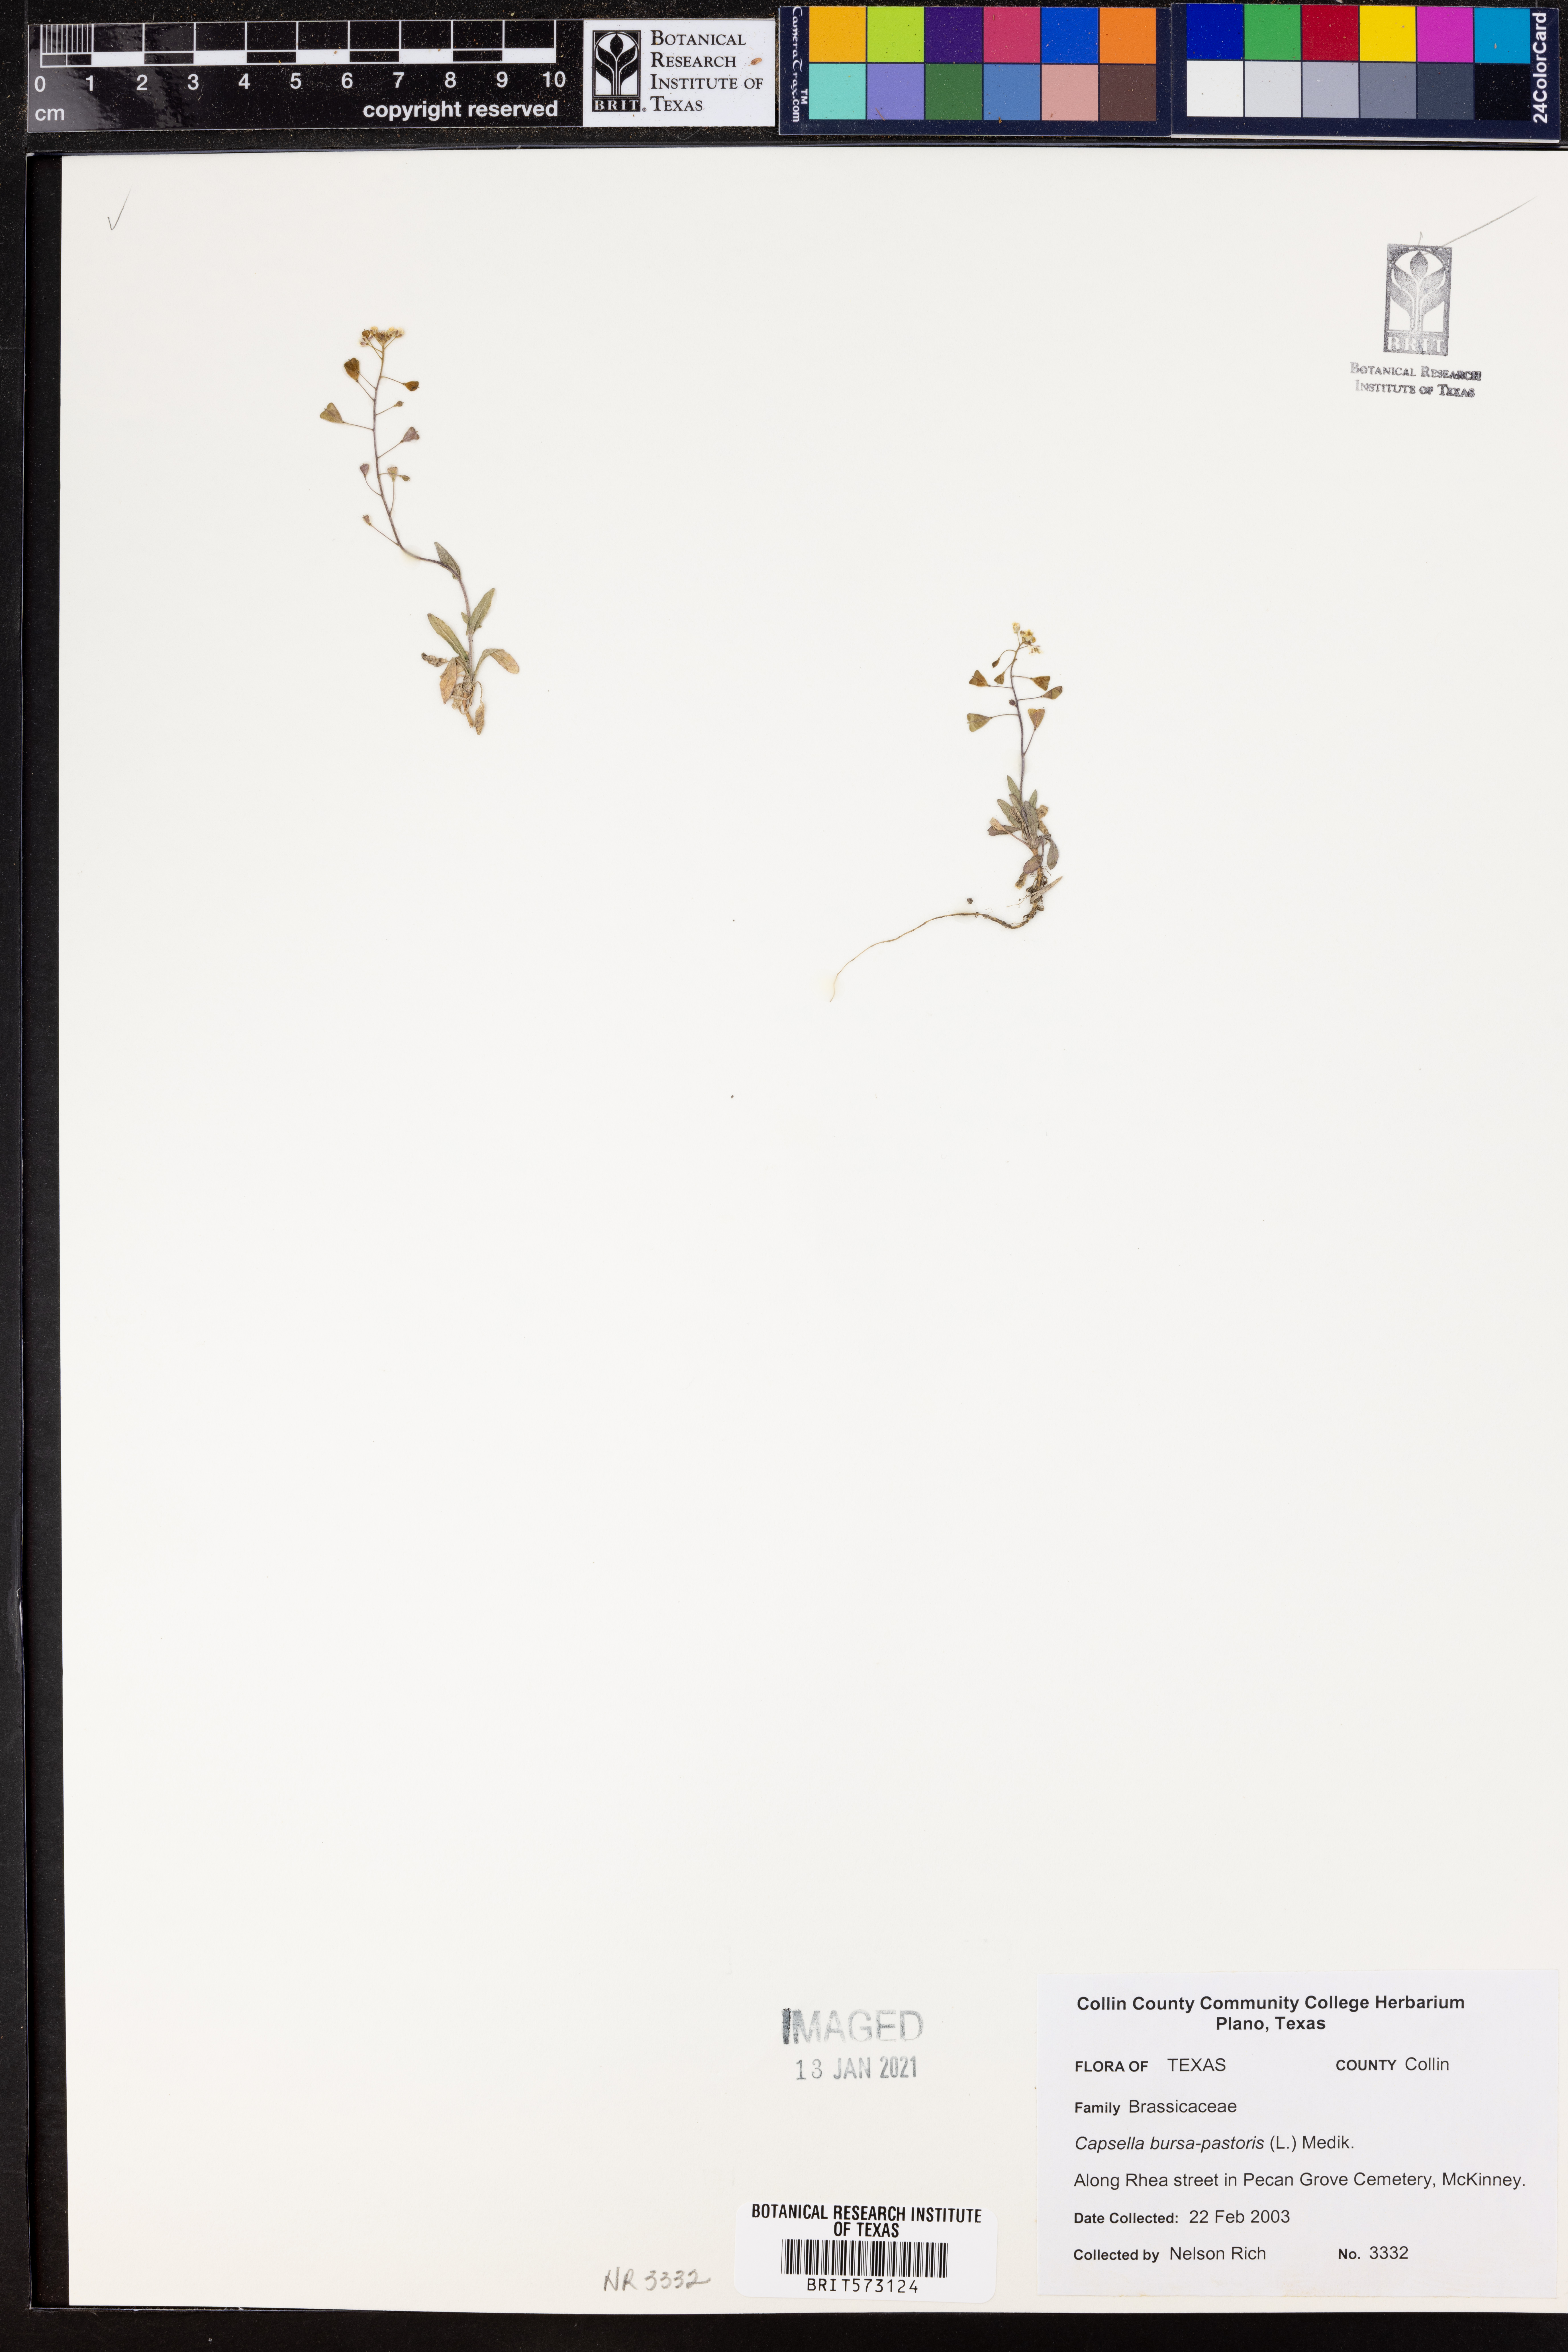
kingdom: Plantae
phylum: Tracheophyta
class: Magnoliopsida
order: Brassicales
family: Brassicaceae
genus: Capsella
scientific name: Capsella bursa-pastoris
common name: Shepherd's purse
